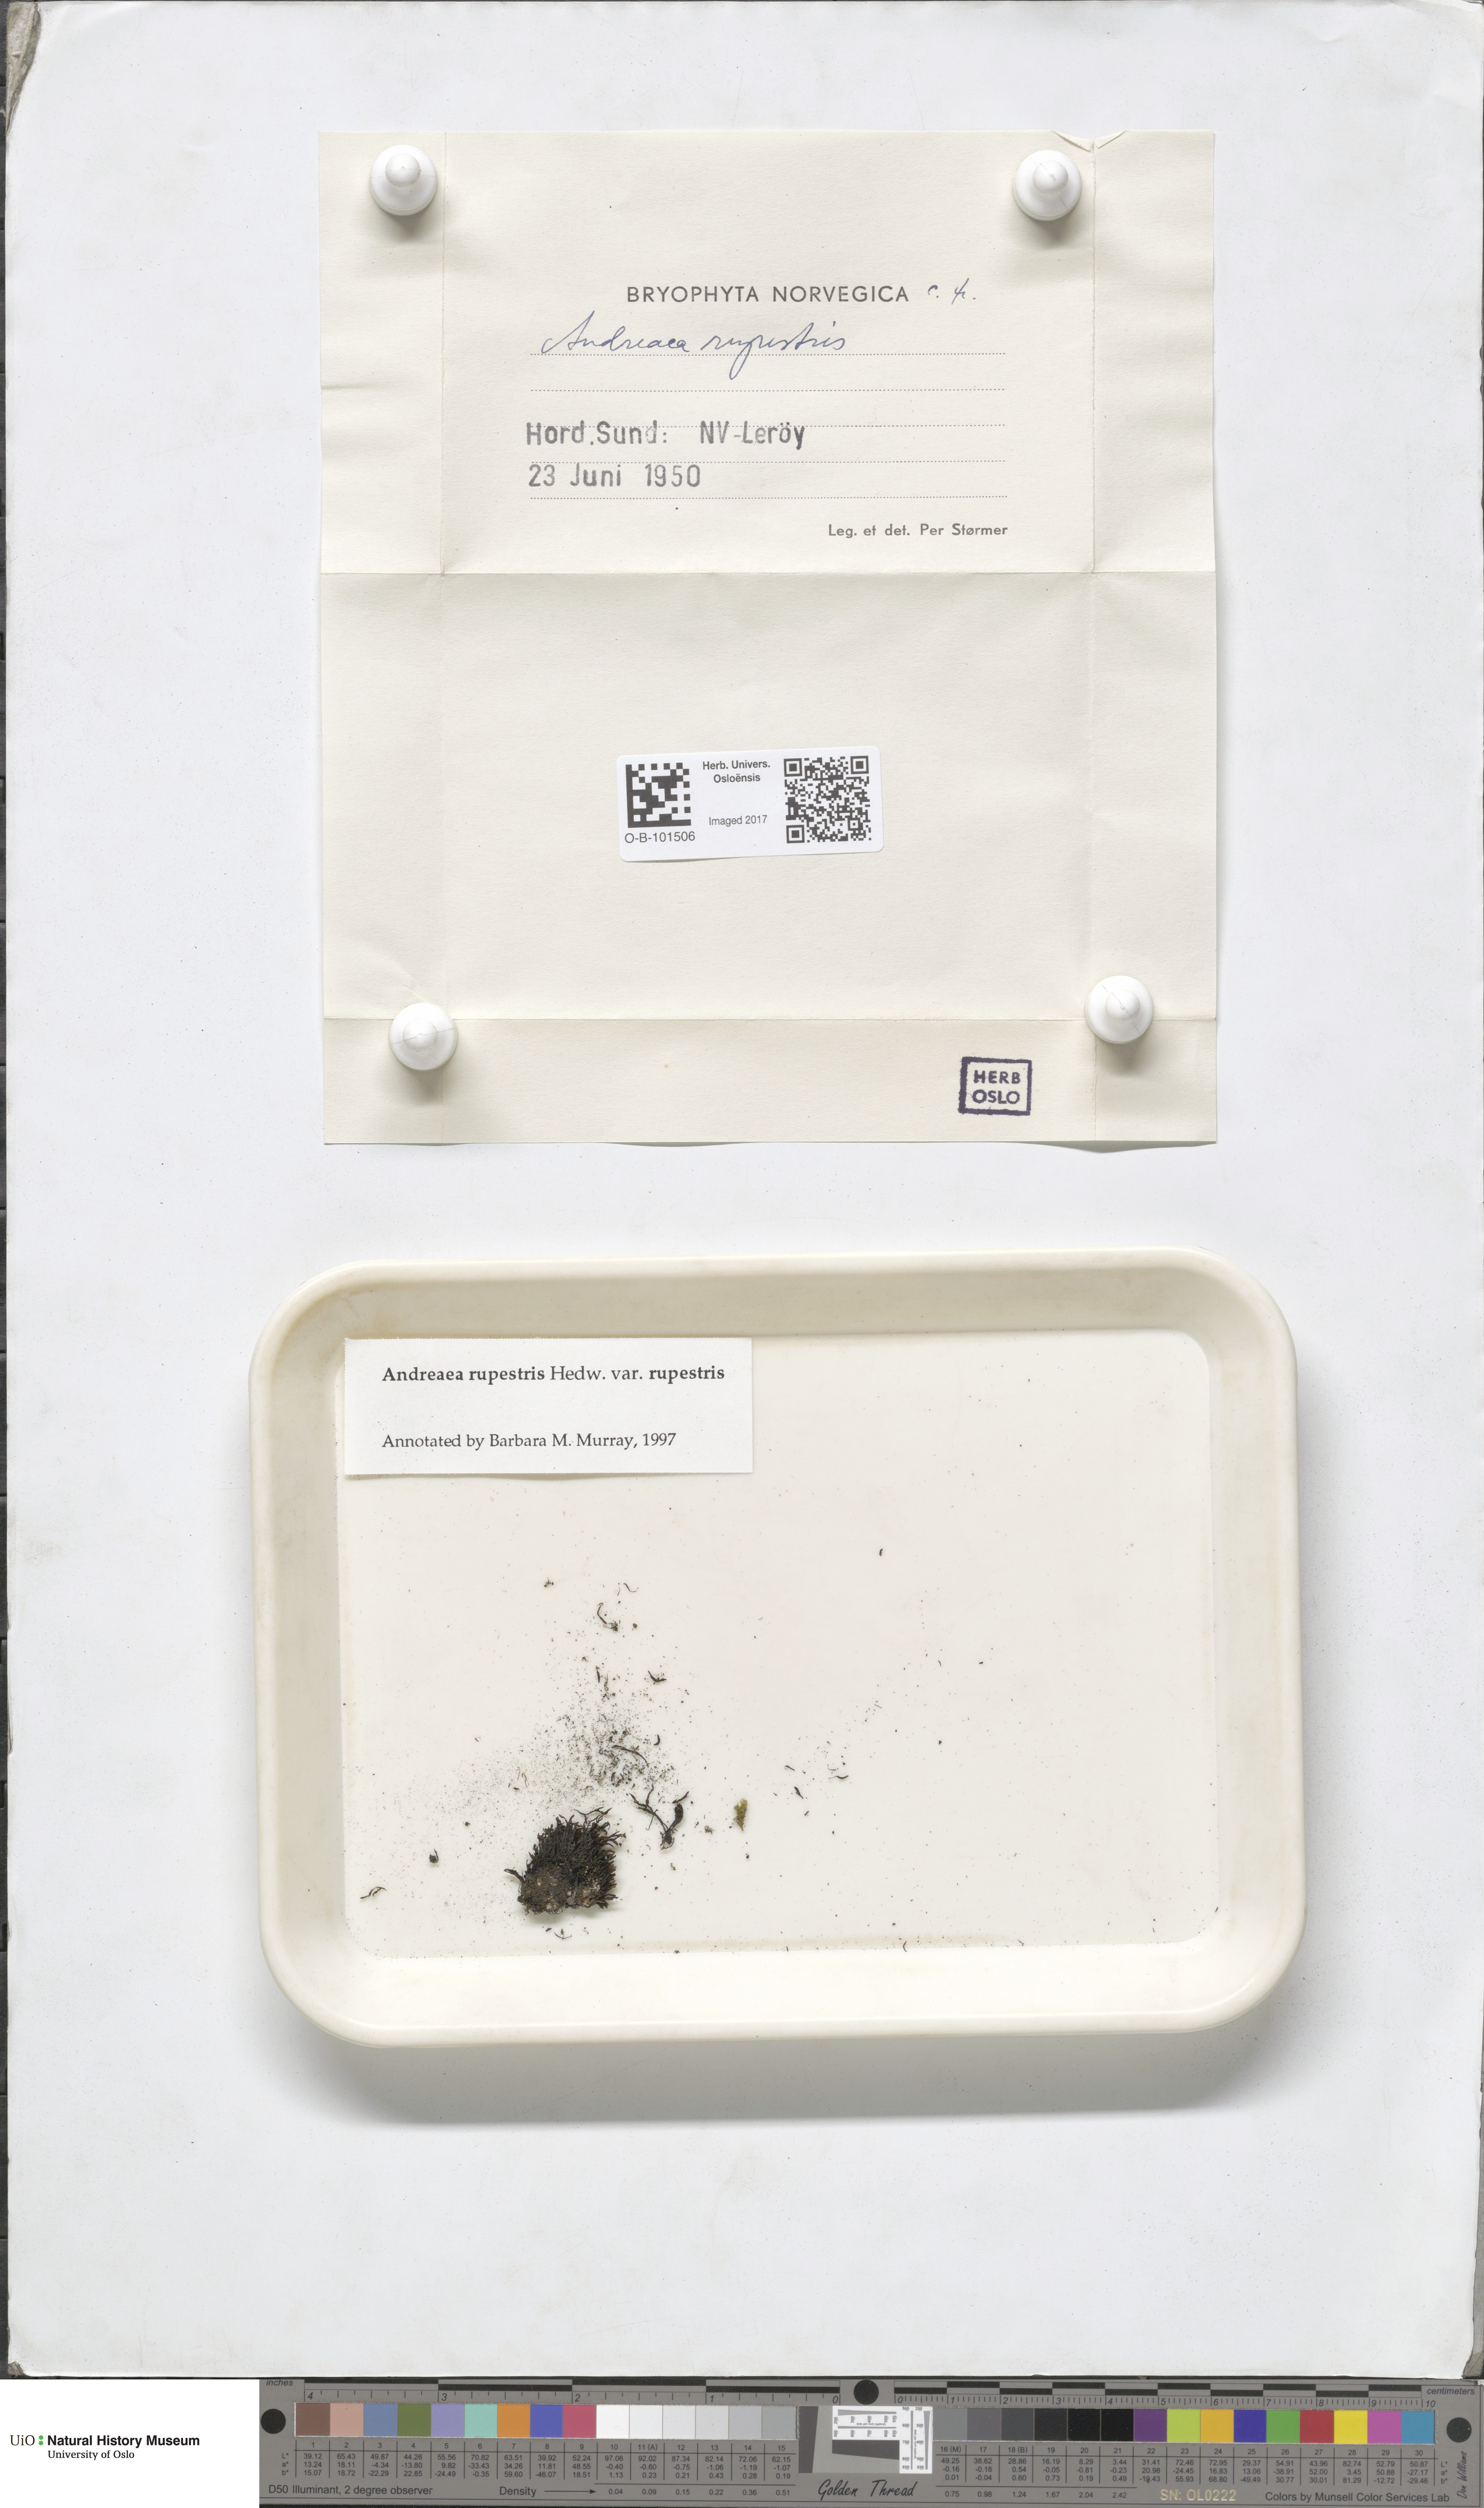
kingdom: Plantae
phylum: Bryophyta
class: Andreaeopsida
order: Andreaeales
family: Andreaeaceae
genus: Andreaea
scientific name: Andreaea rupestris
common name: Black rock moss
